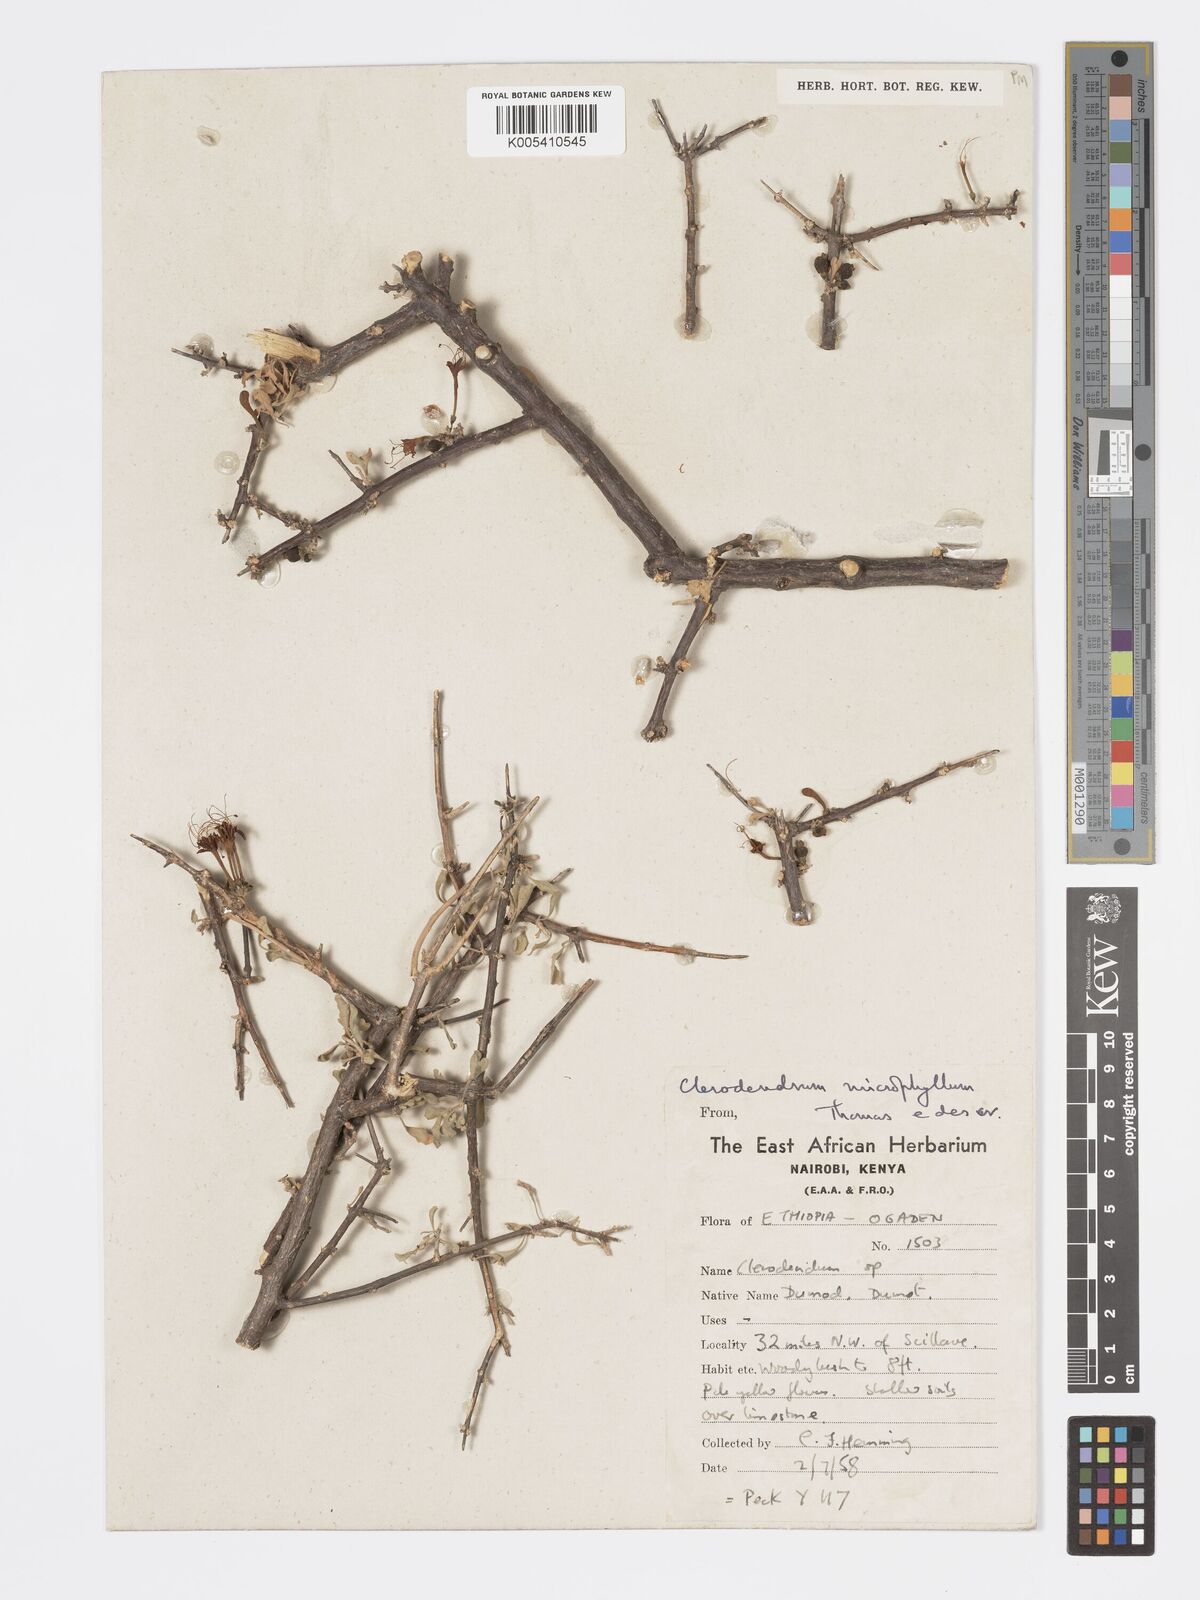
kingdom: Plantae
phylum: Tracheophyta
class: Magnoliopsida
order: Lamiales
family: Lamiaceae
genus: Clerodendrum
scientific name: Clerodendrum robecchii
